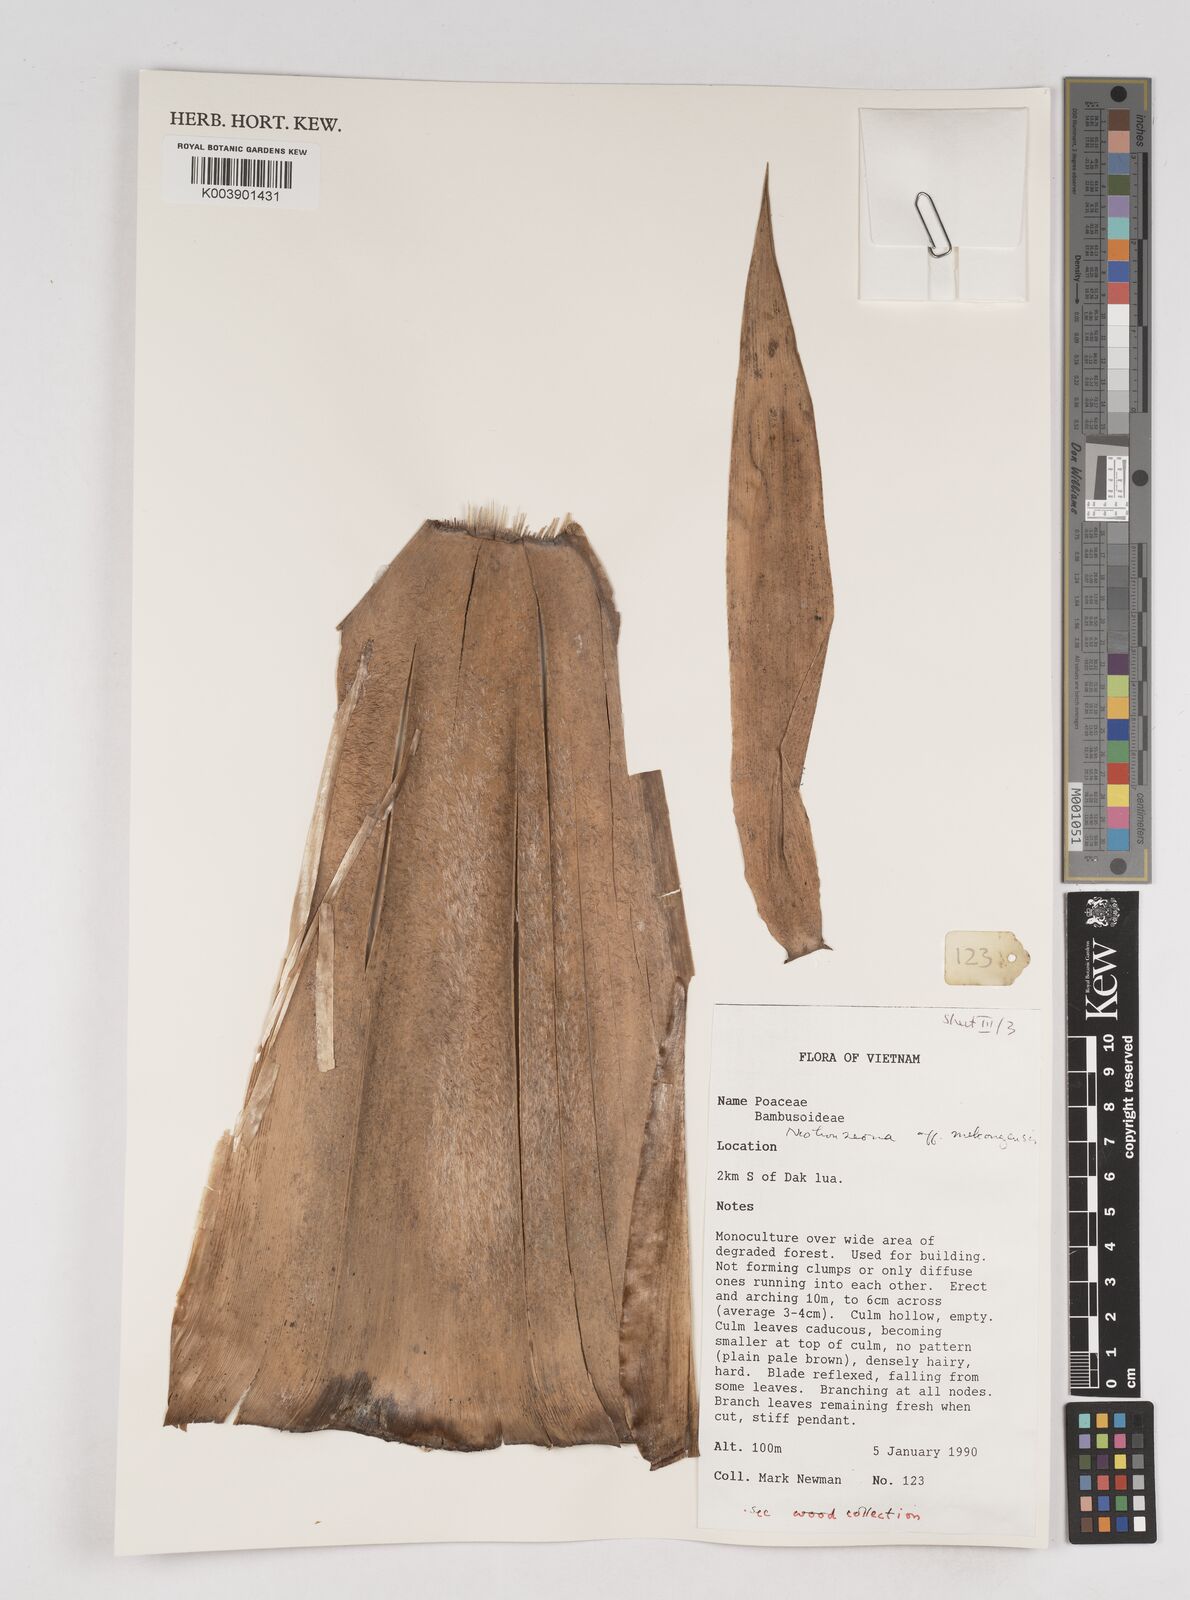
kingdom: Plantae
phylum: Tracheophyta
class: Liliopsida
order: Poales
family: Poaceae
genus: Schizostachyum
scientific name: Schizostachyum
